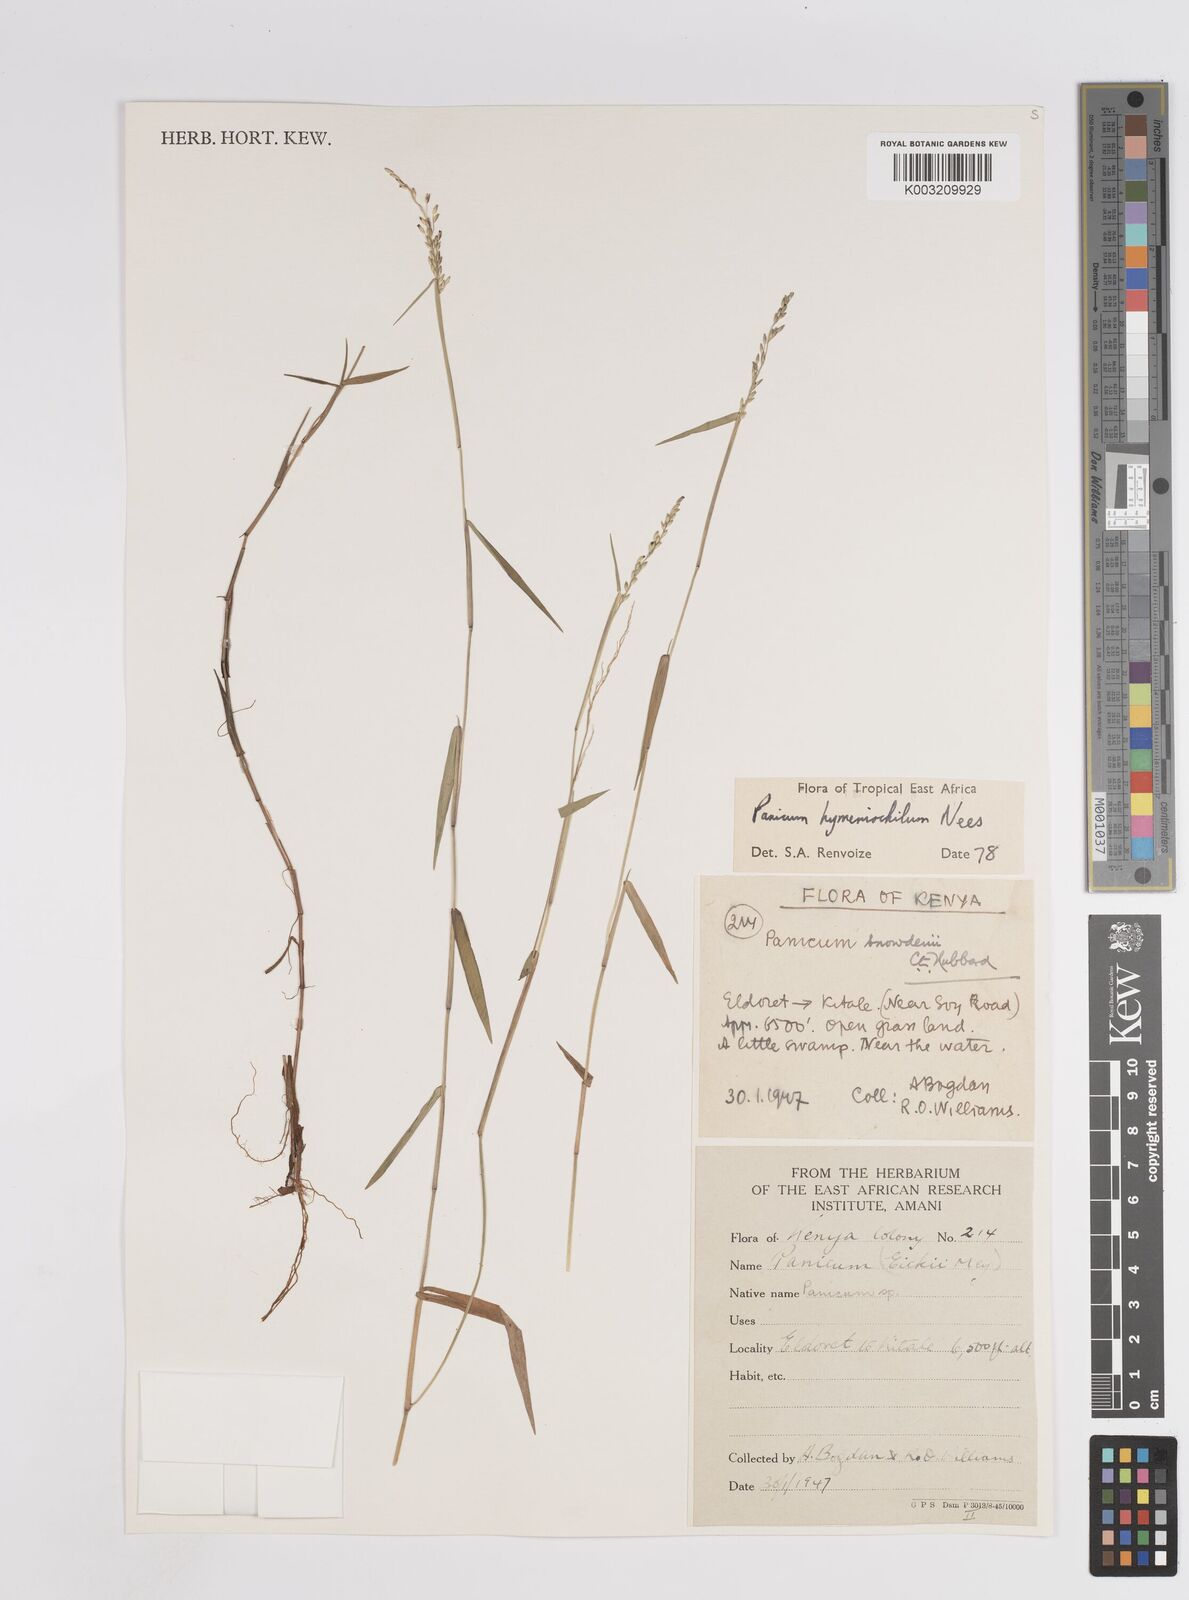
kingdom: Plantae
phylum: Tracheophyta
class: Liliopsida
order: Poales
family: Poaceae
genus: Adenochloa
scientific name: Adenochloa hymeniochila
